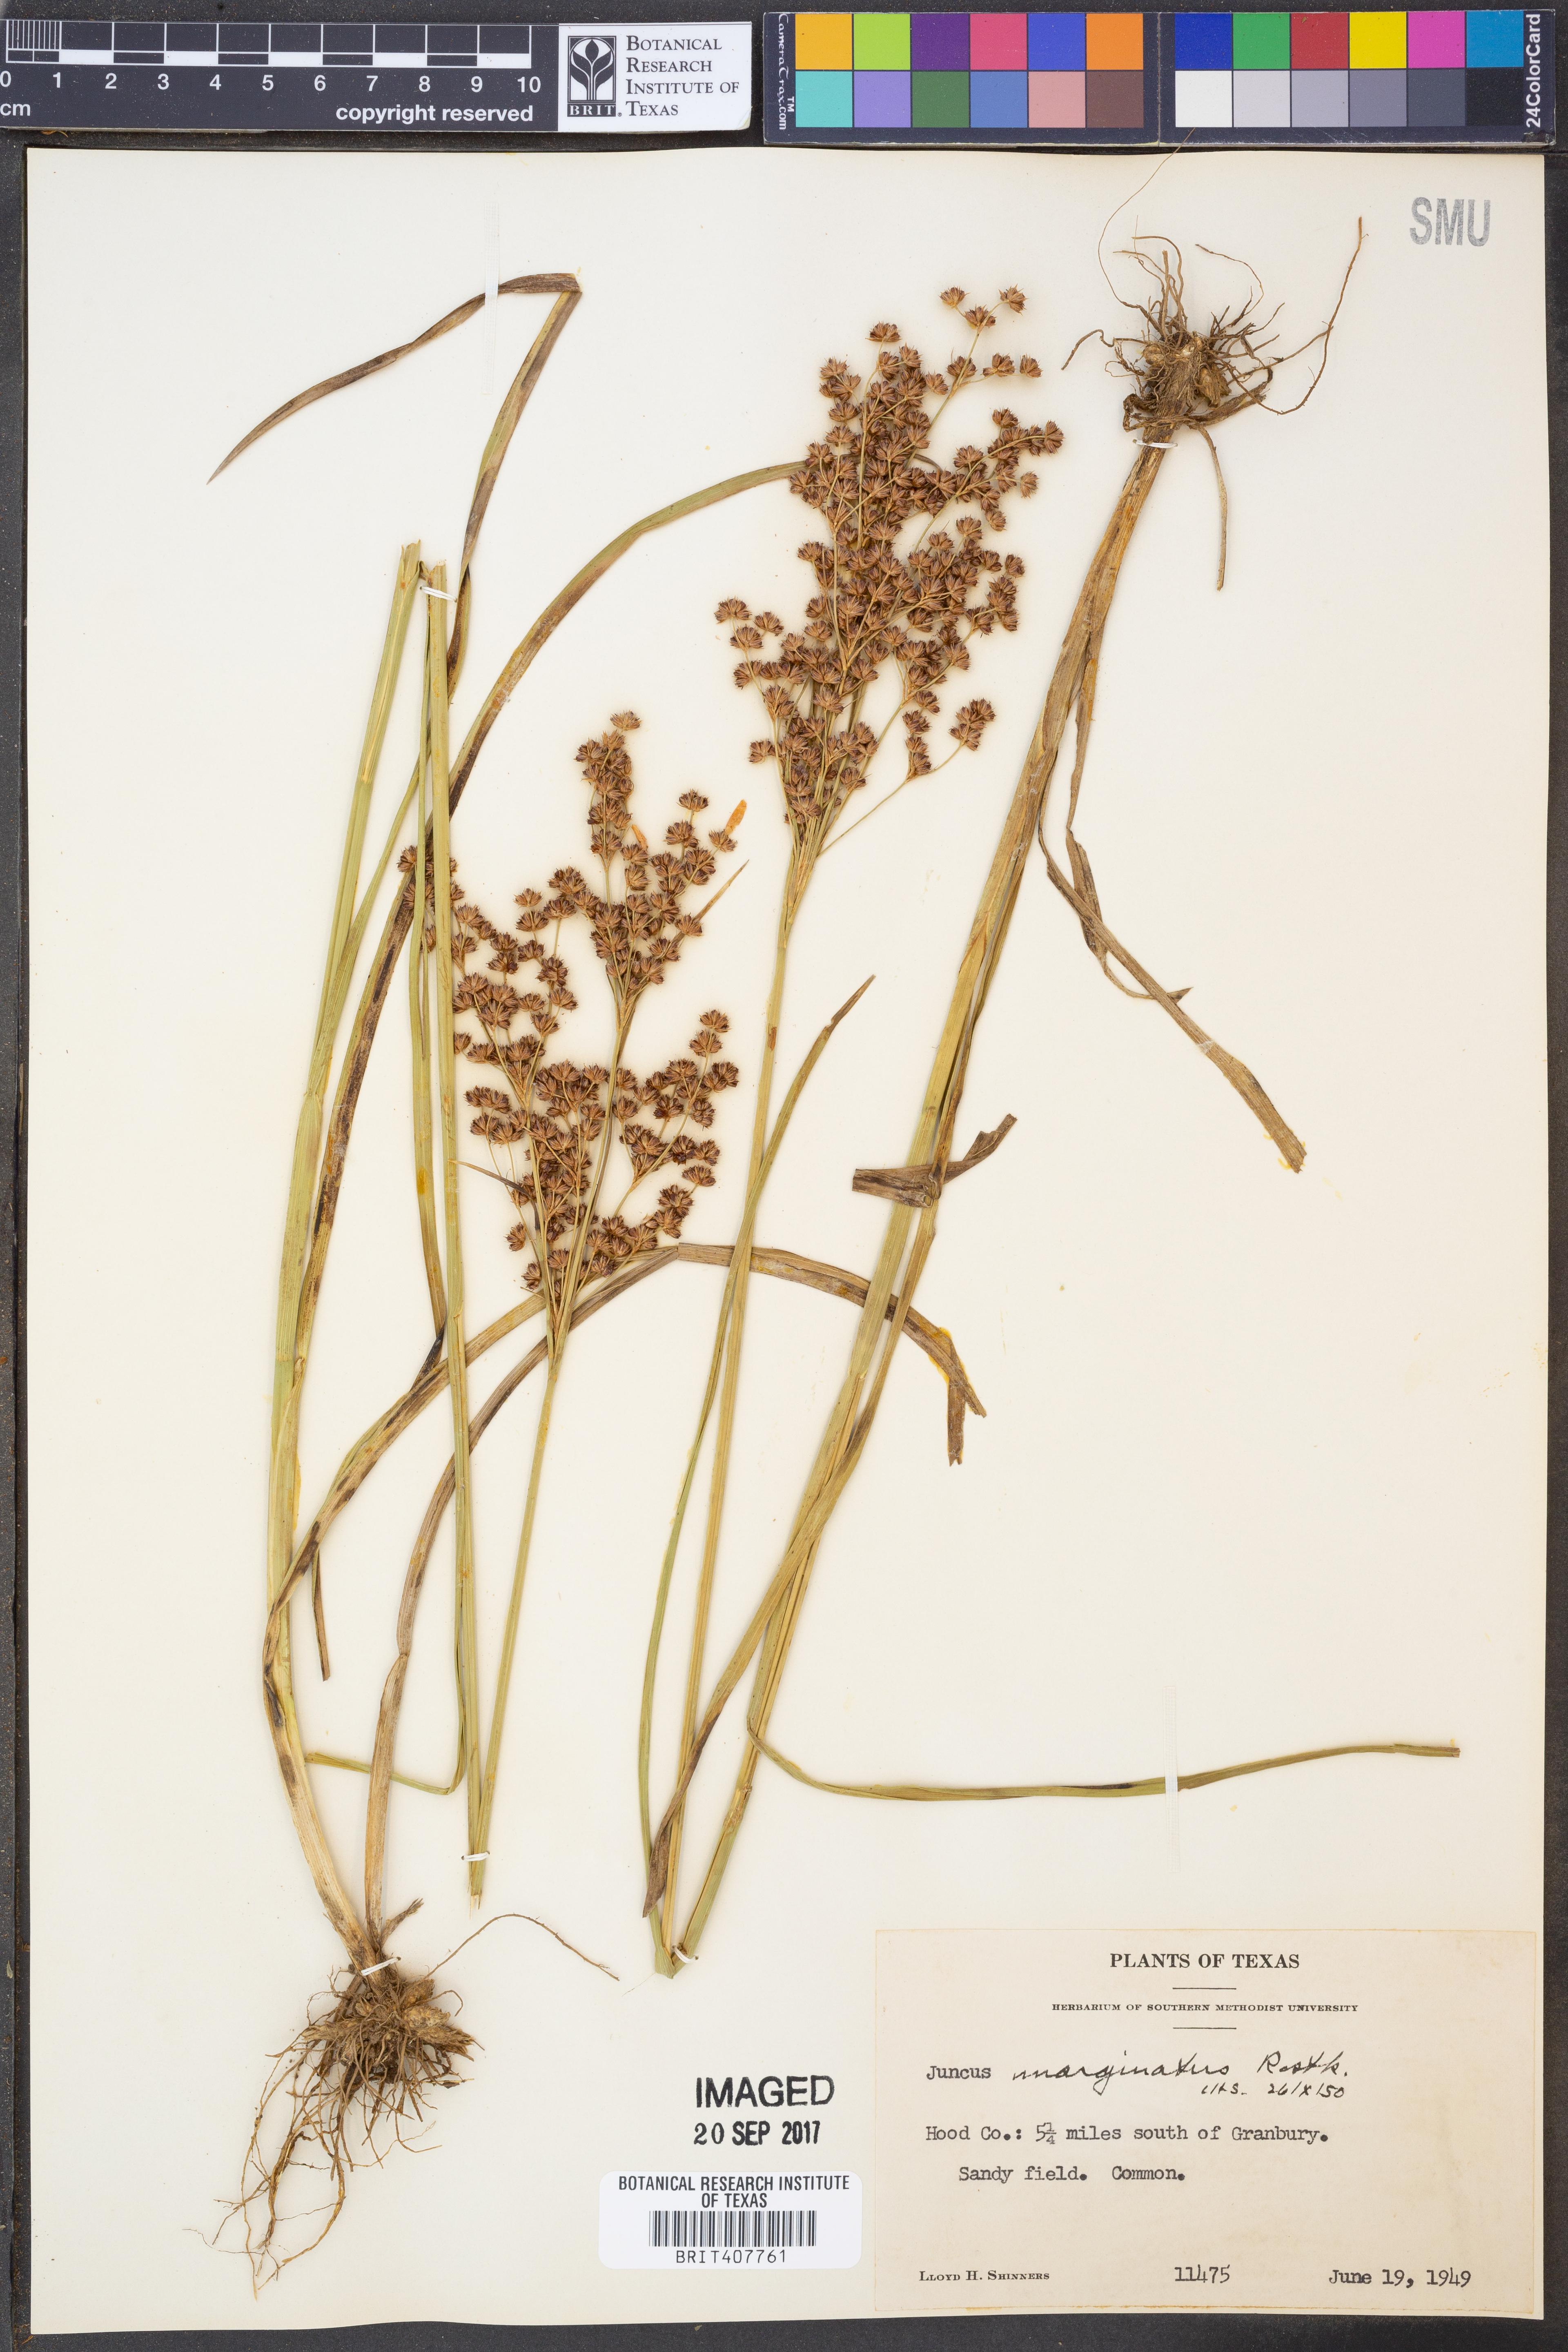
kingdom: Plantae
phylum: Tracheophyta
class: Liliopsida
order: Poales
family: Juncaceae
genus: Juncus
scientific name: Juncus marginatus
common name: Grass-leaf rush
